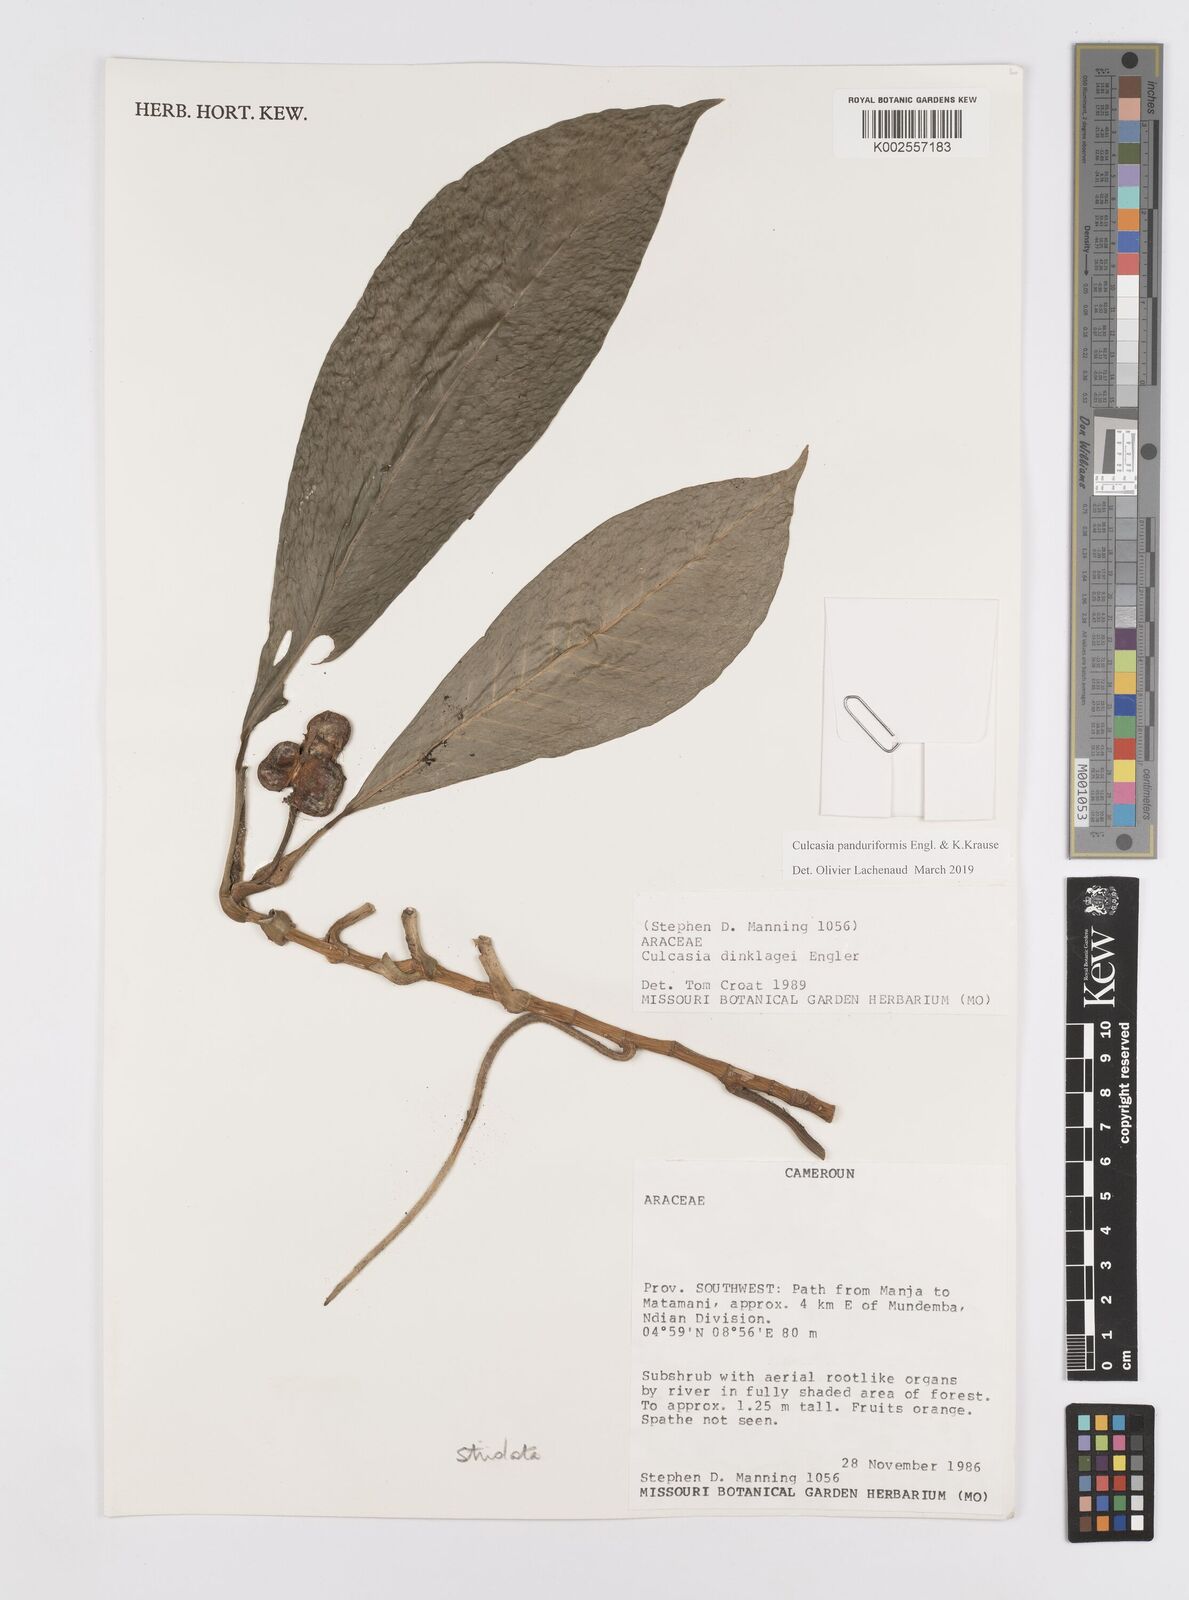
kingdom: Plantae
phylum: Tracheophyta
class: Liliopsida
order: Alismatales
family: Araceae
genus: Culcasia
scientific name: Culcasia striolata
